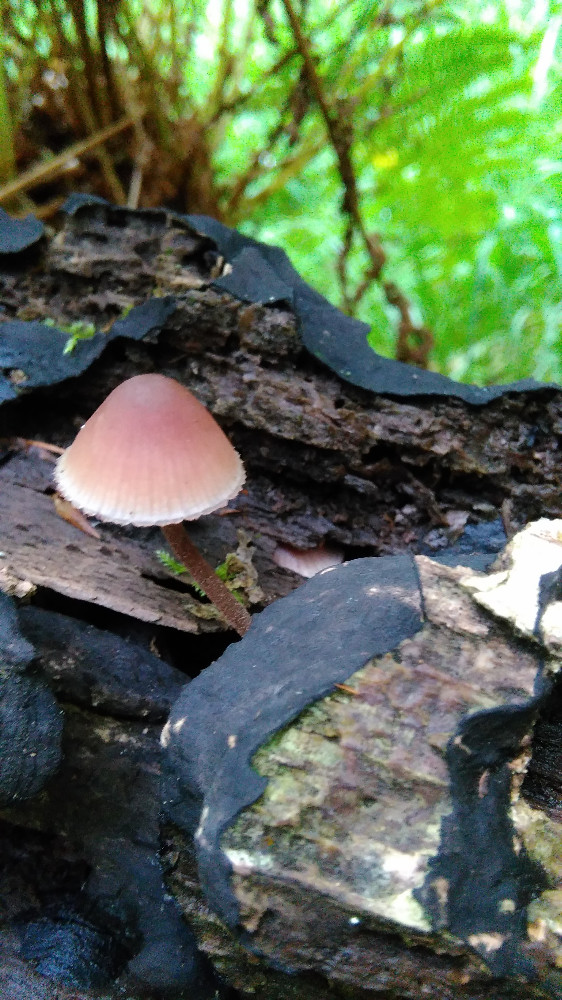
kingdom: Fungi
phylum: Basidiomycota
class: Agaricomycetes
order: Agaricales
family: Mycenaceae
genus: Mycena
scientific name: Mycena haematopus
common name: blødende huesvamp
